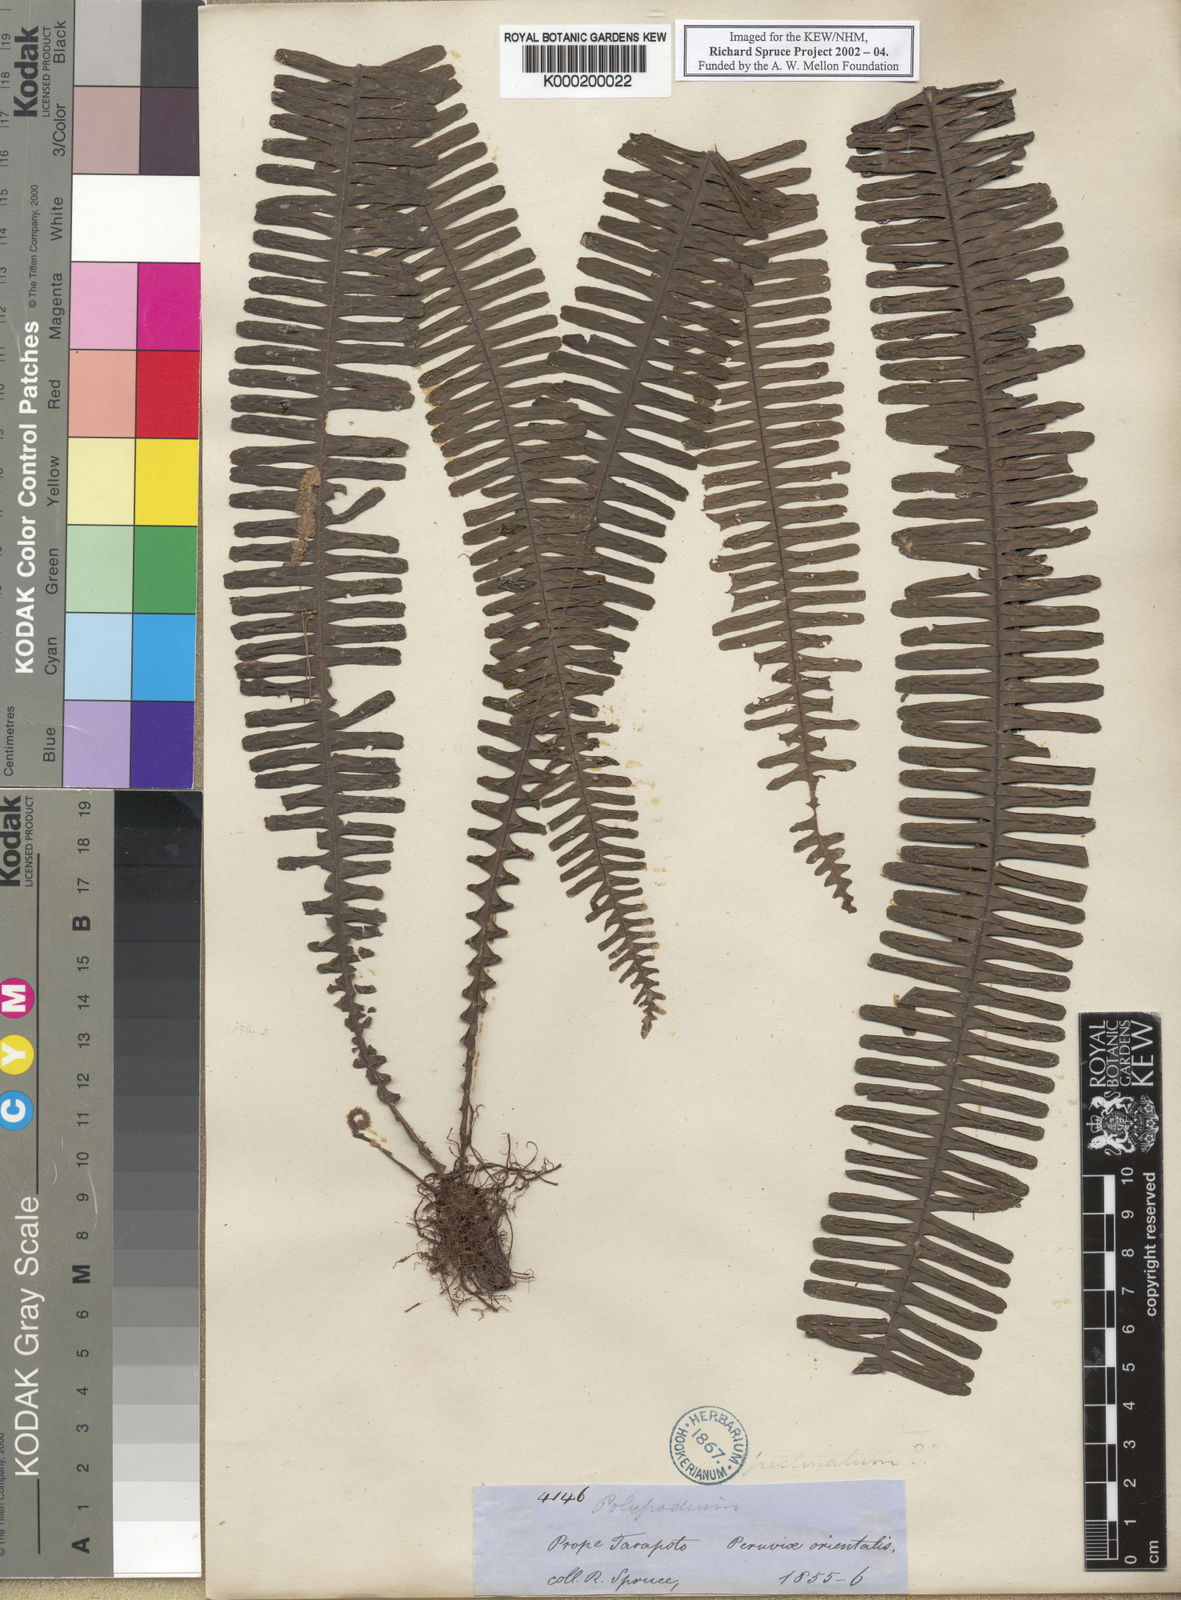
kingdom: Plantae
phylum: Tracheophyta
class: Polypodiopsida
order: Polypodiales
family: Polypodiaceae
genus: Pecluma
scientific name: Pecluma pectinata
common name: Msasa fern
